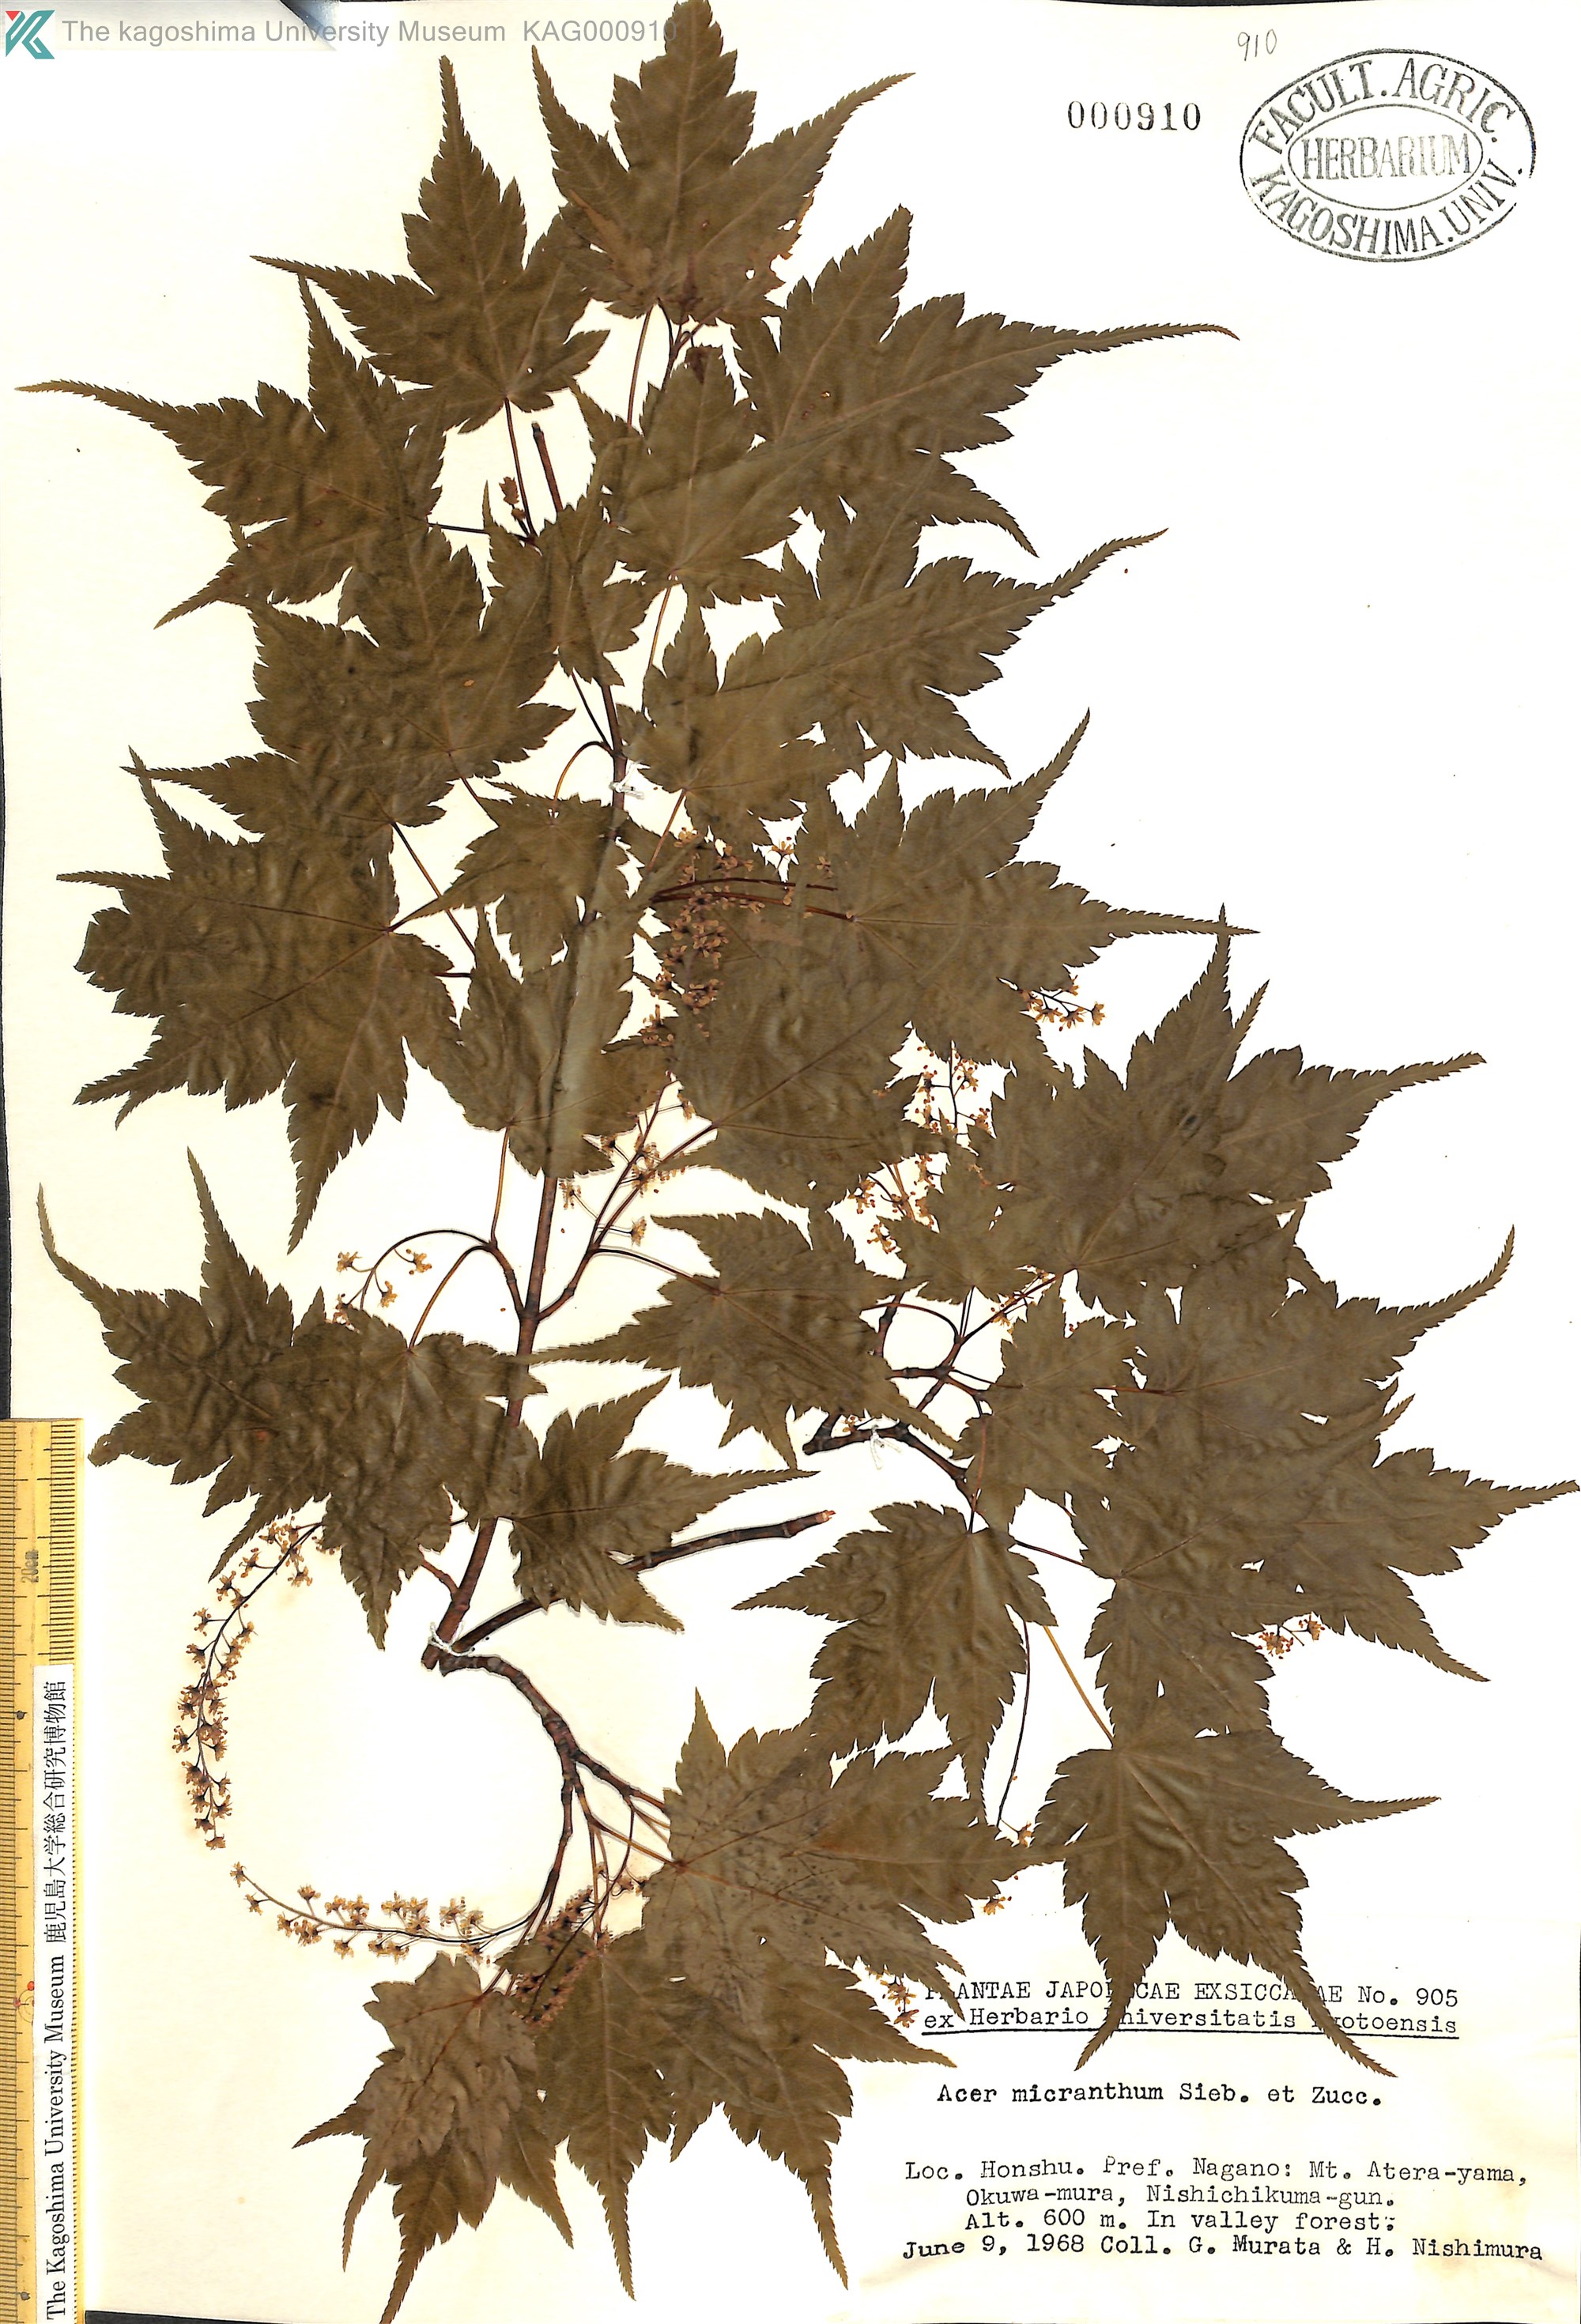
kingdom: Plantae
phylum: Tracheophyta
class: Magnoliopsida
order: Sapindales
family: Sapindaceae
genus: Acer
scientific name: Acer micranthum
